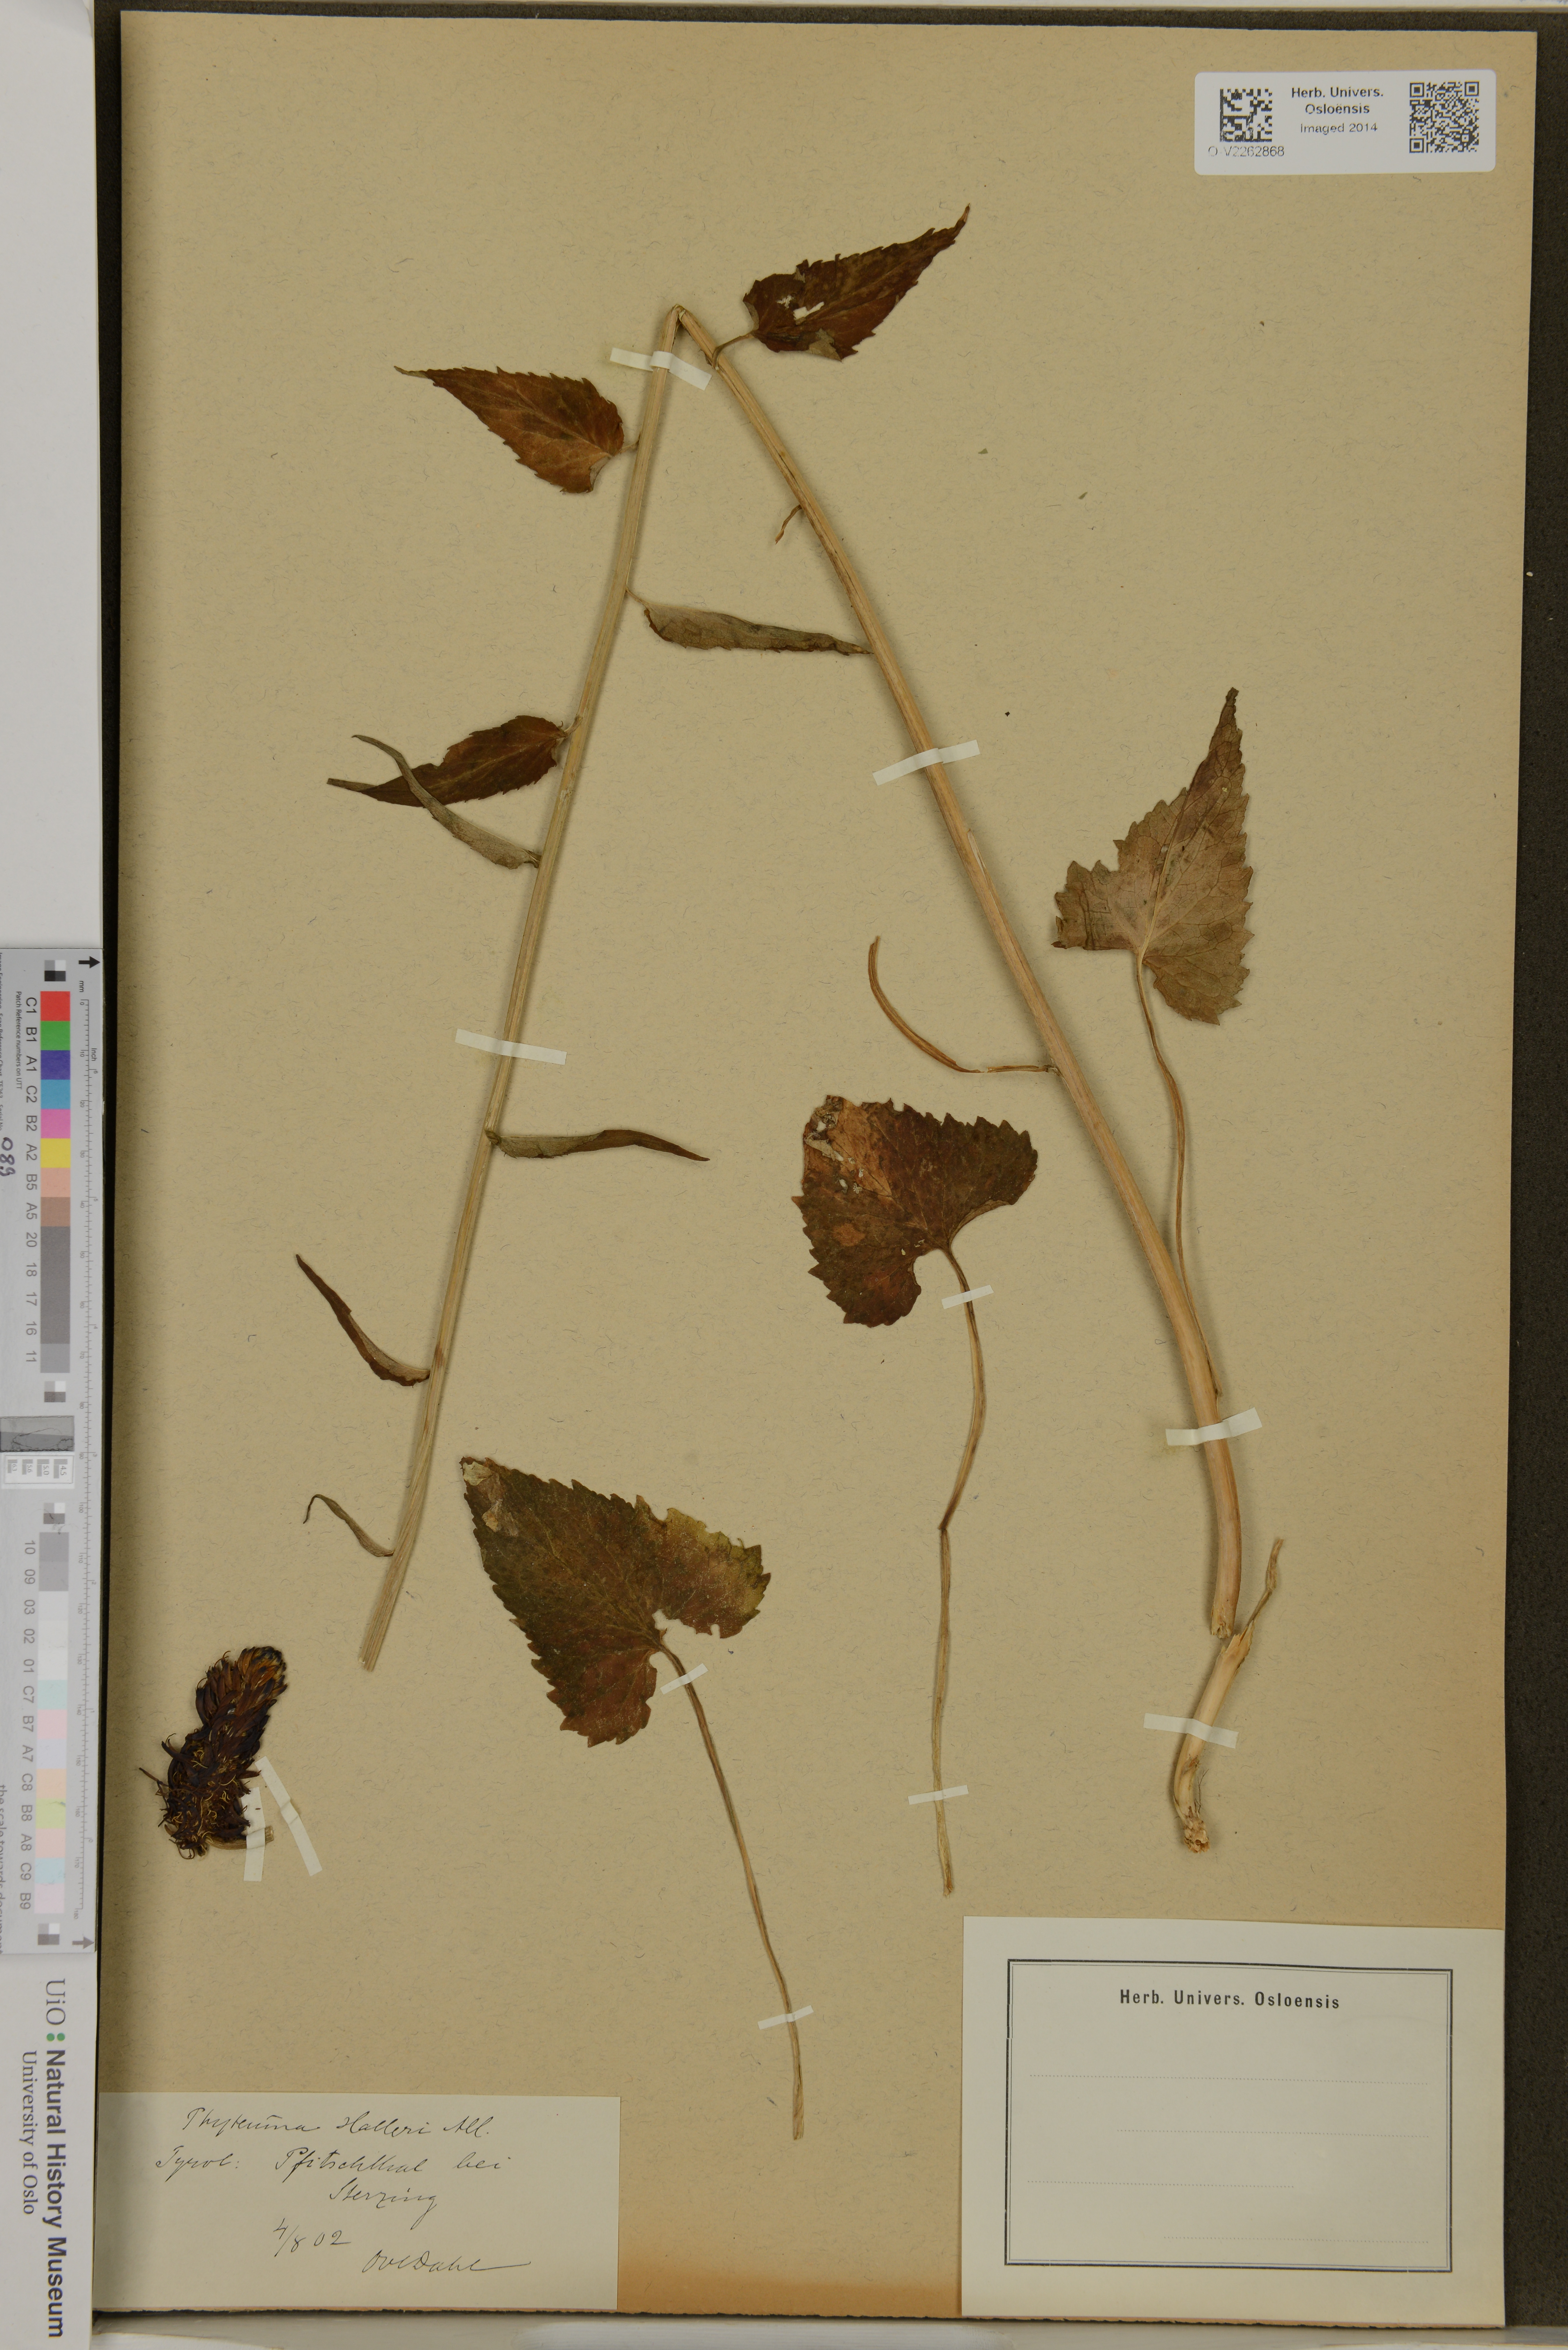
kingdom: Plantae
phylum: Tracheophyta
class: Magnoliopsida
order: Asterales
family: Campanulaceae
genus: Phyteuma
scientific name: Phyteuma halleri
